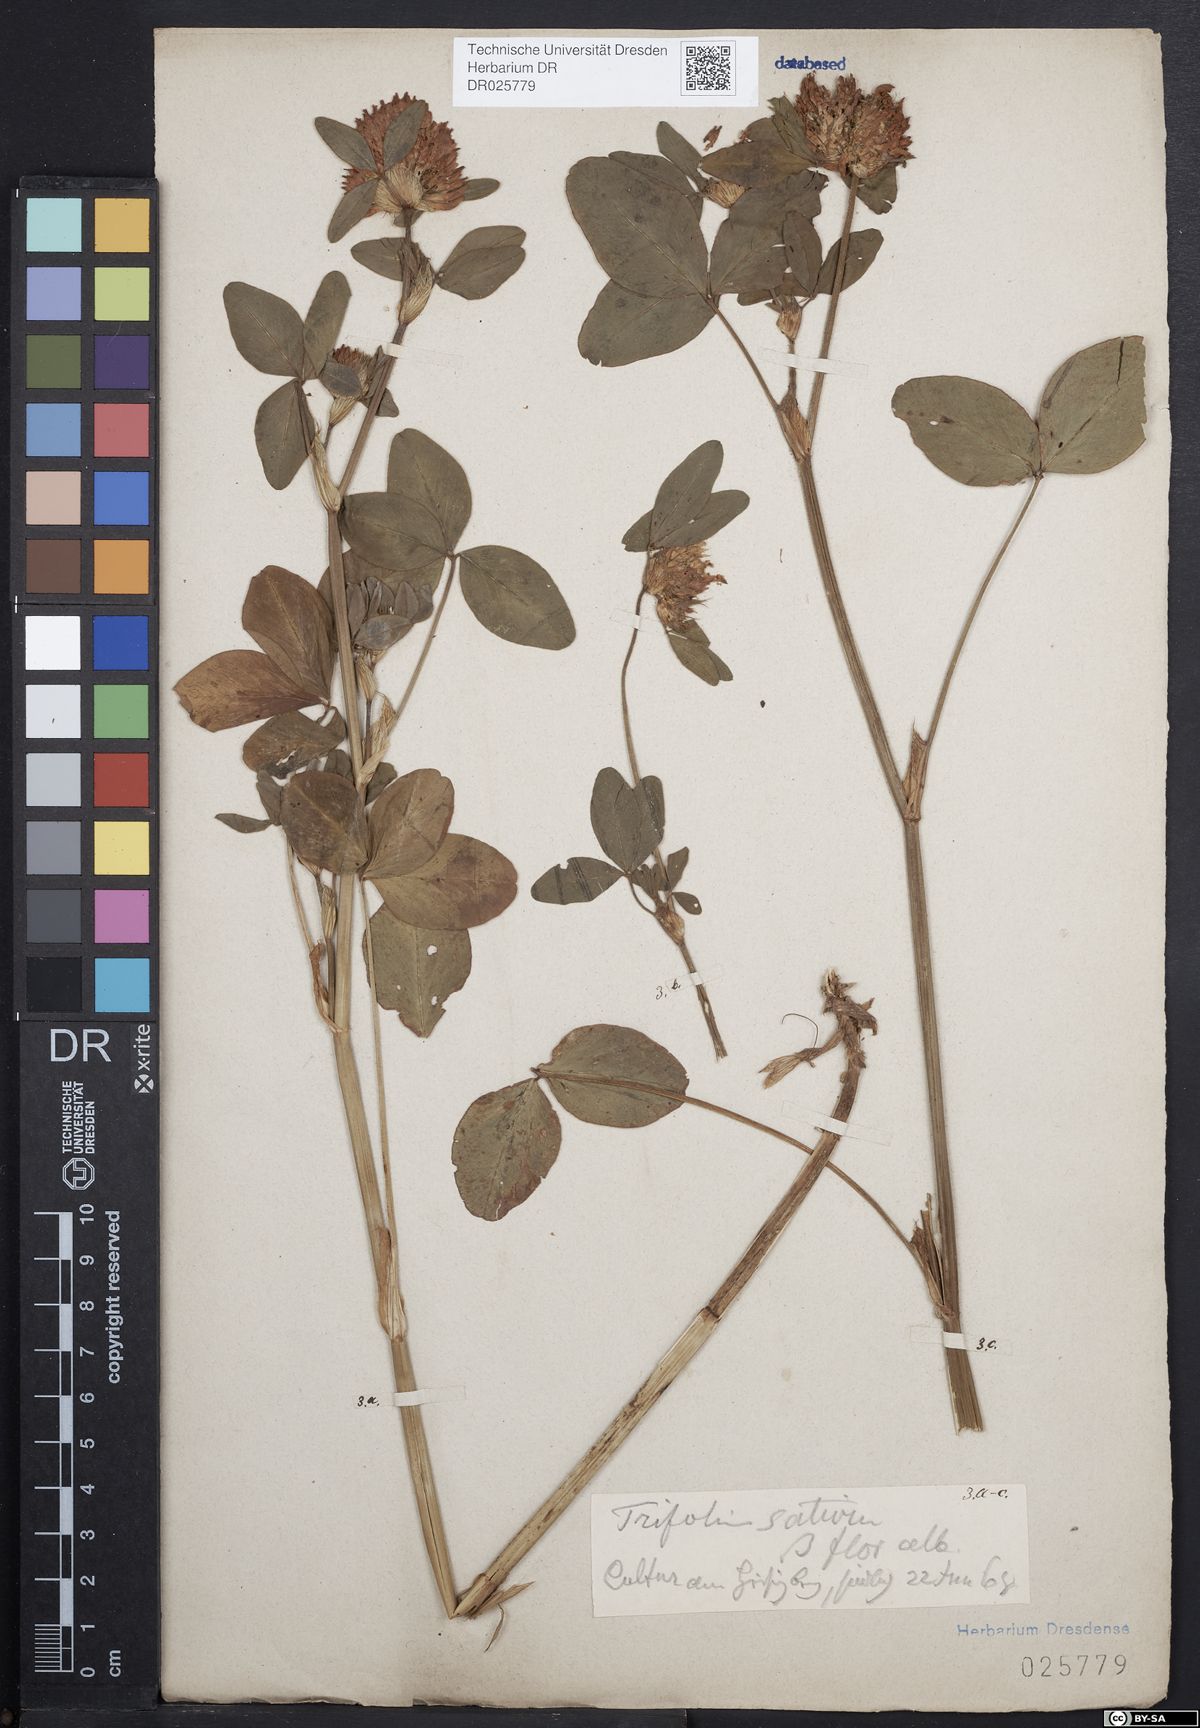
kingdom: Plantae
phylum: Tracheophyta
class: Magnoliopsida
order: Fabales
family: Fabaceae
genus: Trifolium
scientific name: Trifolium pratense
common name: Red clover
